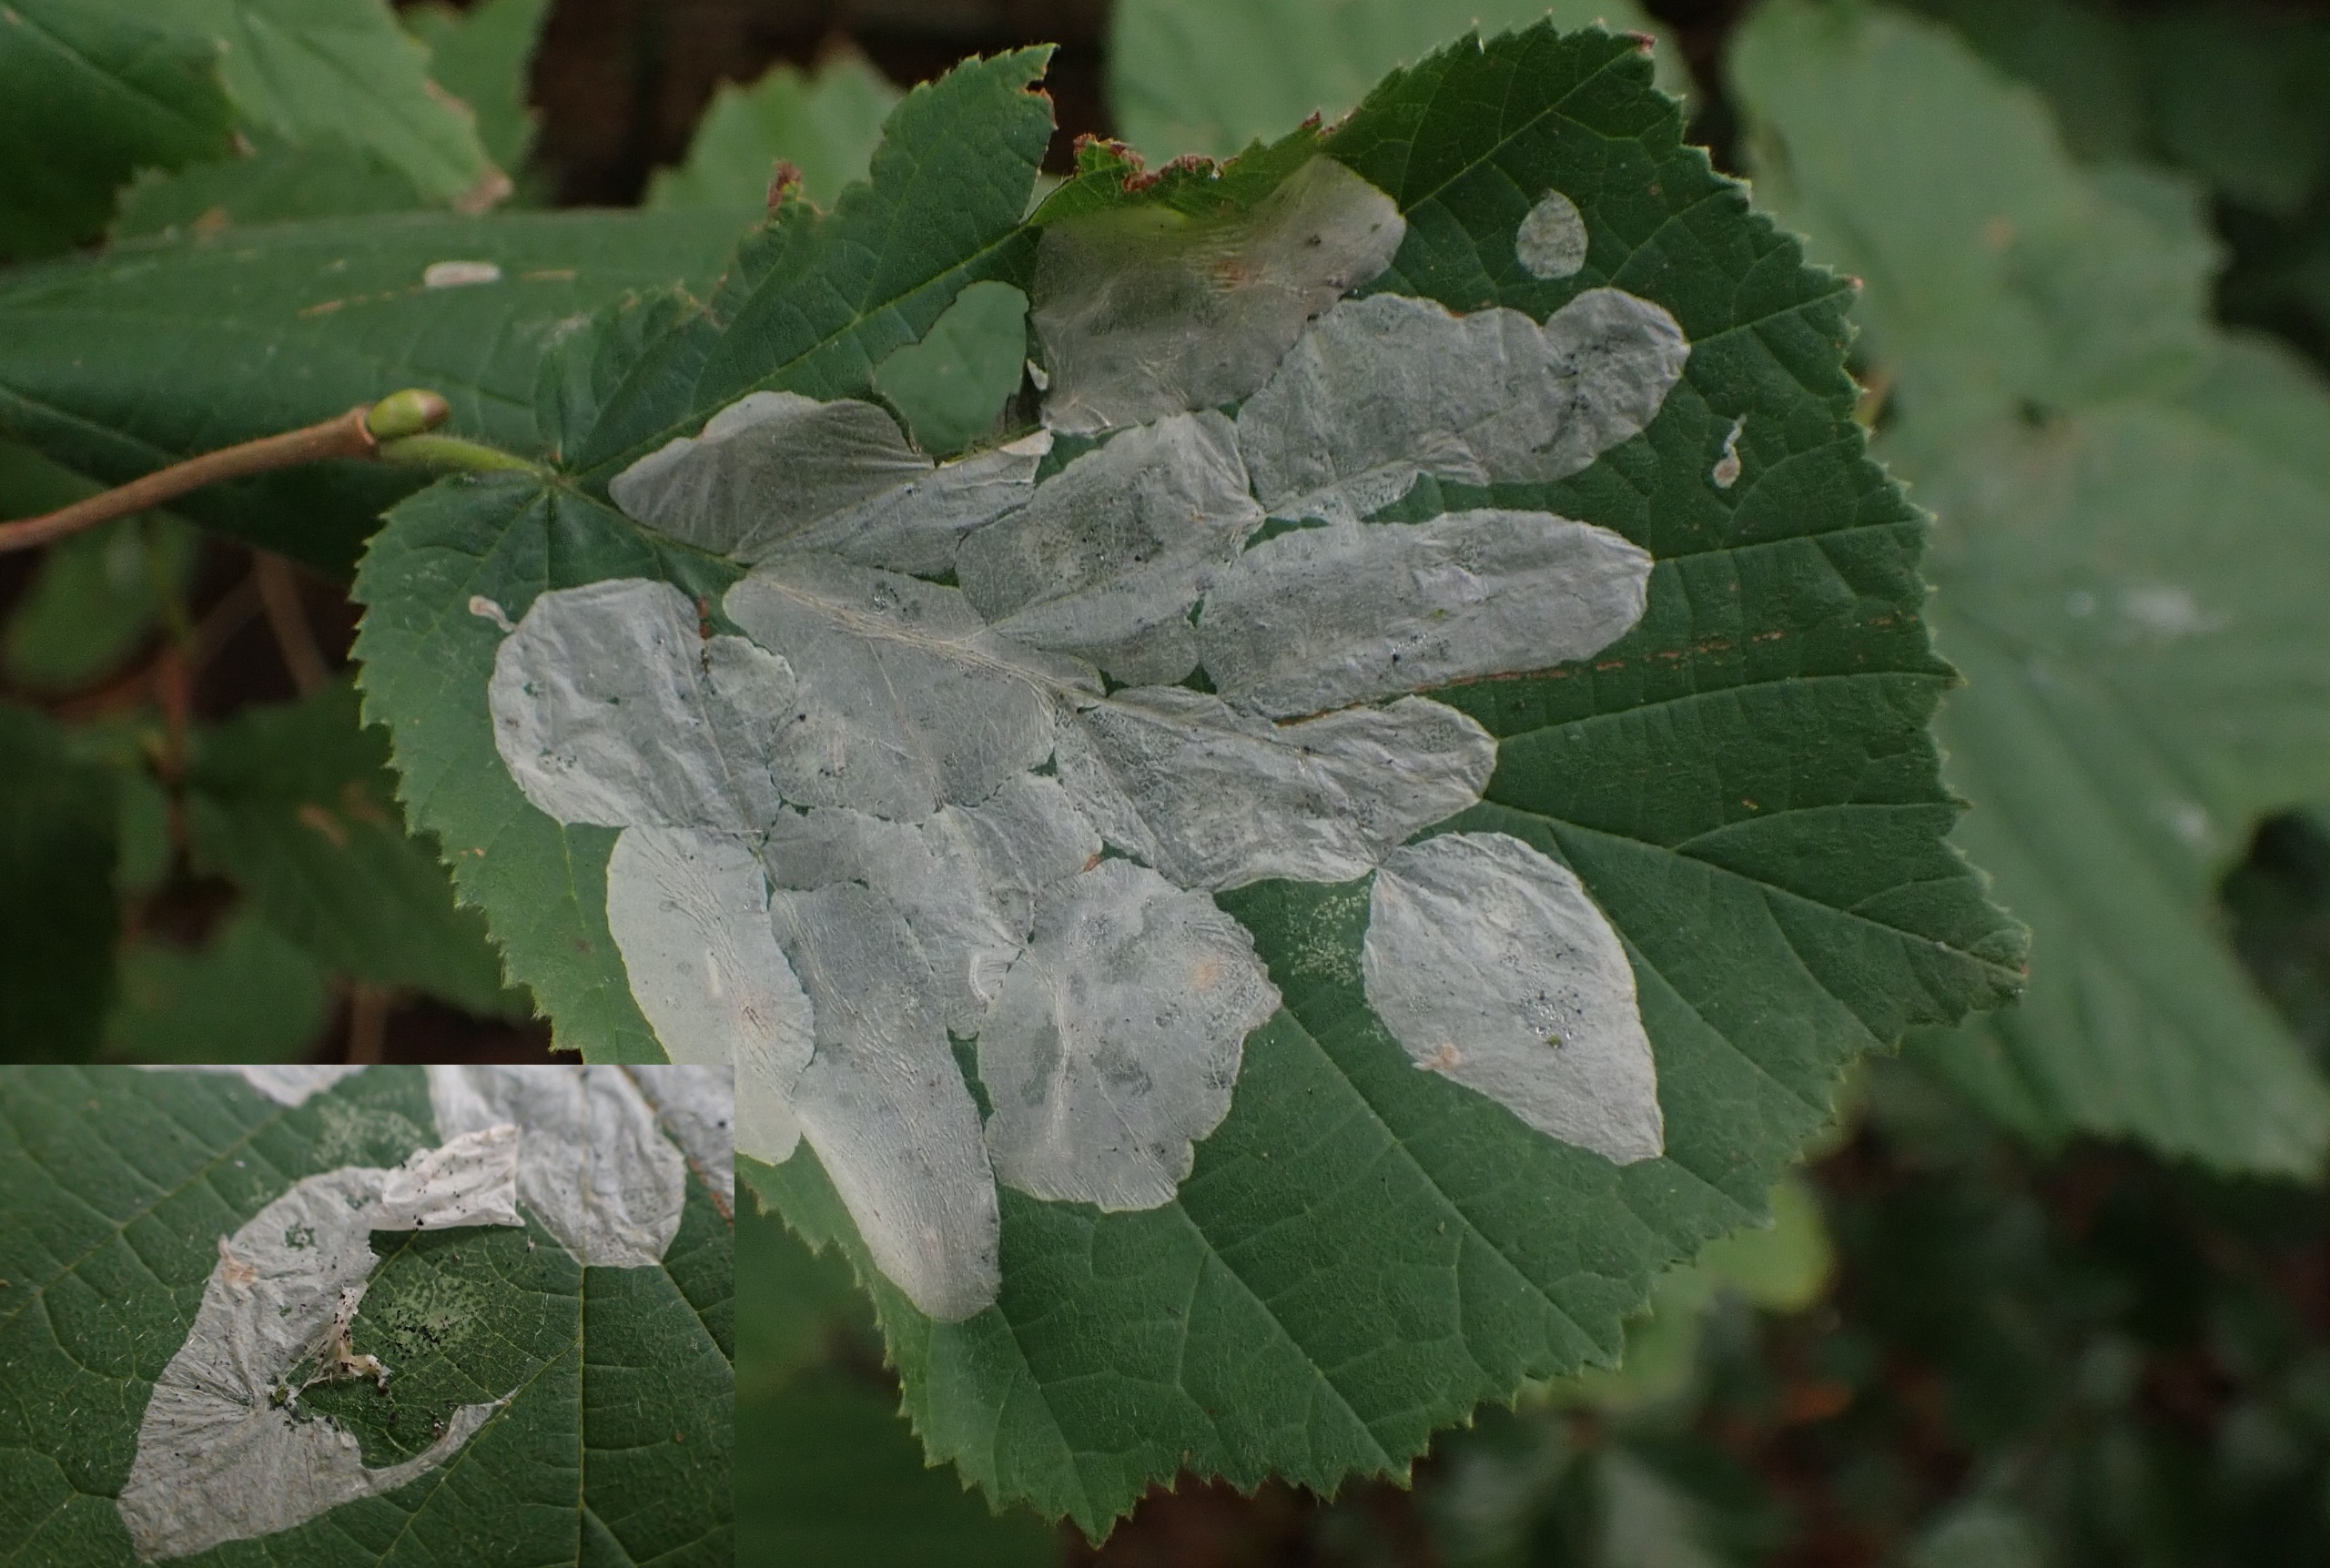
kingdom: Animalia
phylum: Arthropoda
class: Insecta
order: Lepidoptera
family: Gracillariidae
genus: Phyllonorycter
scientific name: Phyllonorycter coryli
